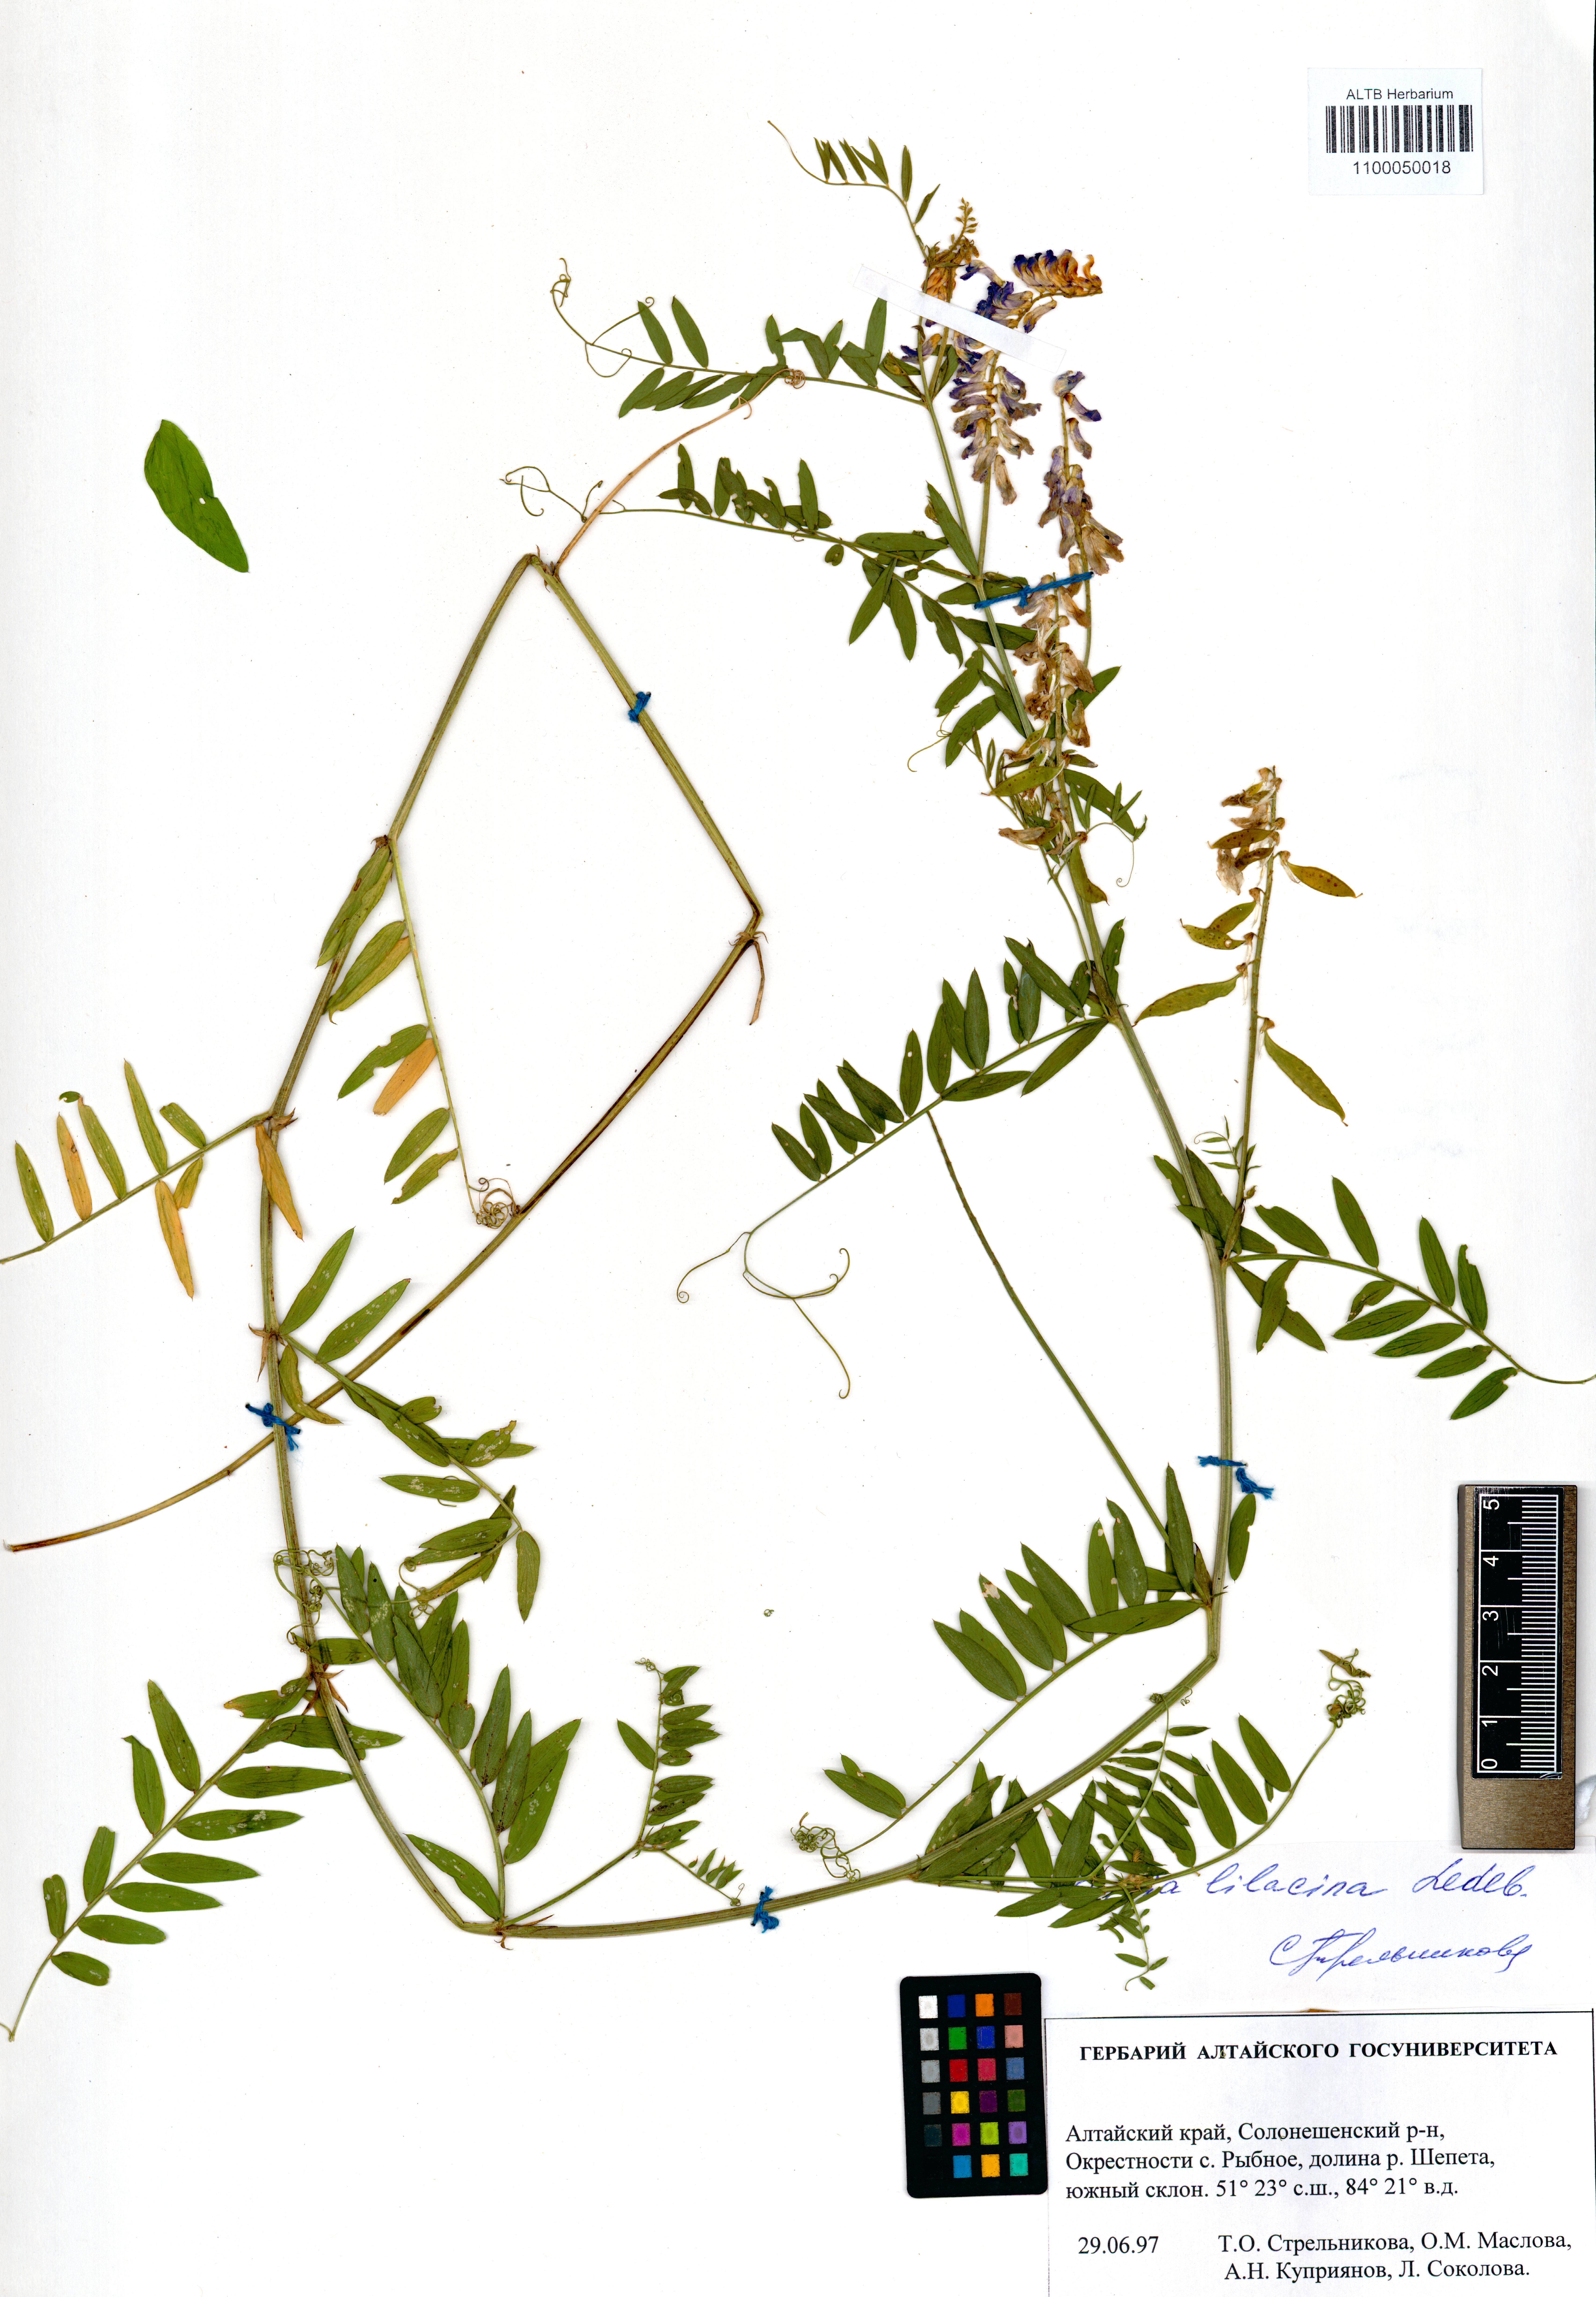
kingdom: Plantae
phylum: Tracheophyta
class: Magnoliopsida
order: Fabales
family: Fabaceae
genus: Vicia
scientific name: Vicia lilacina
